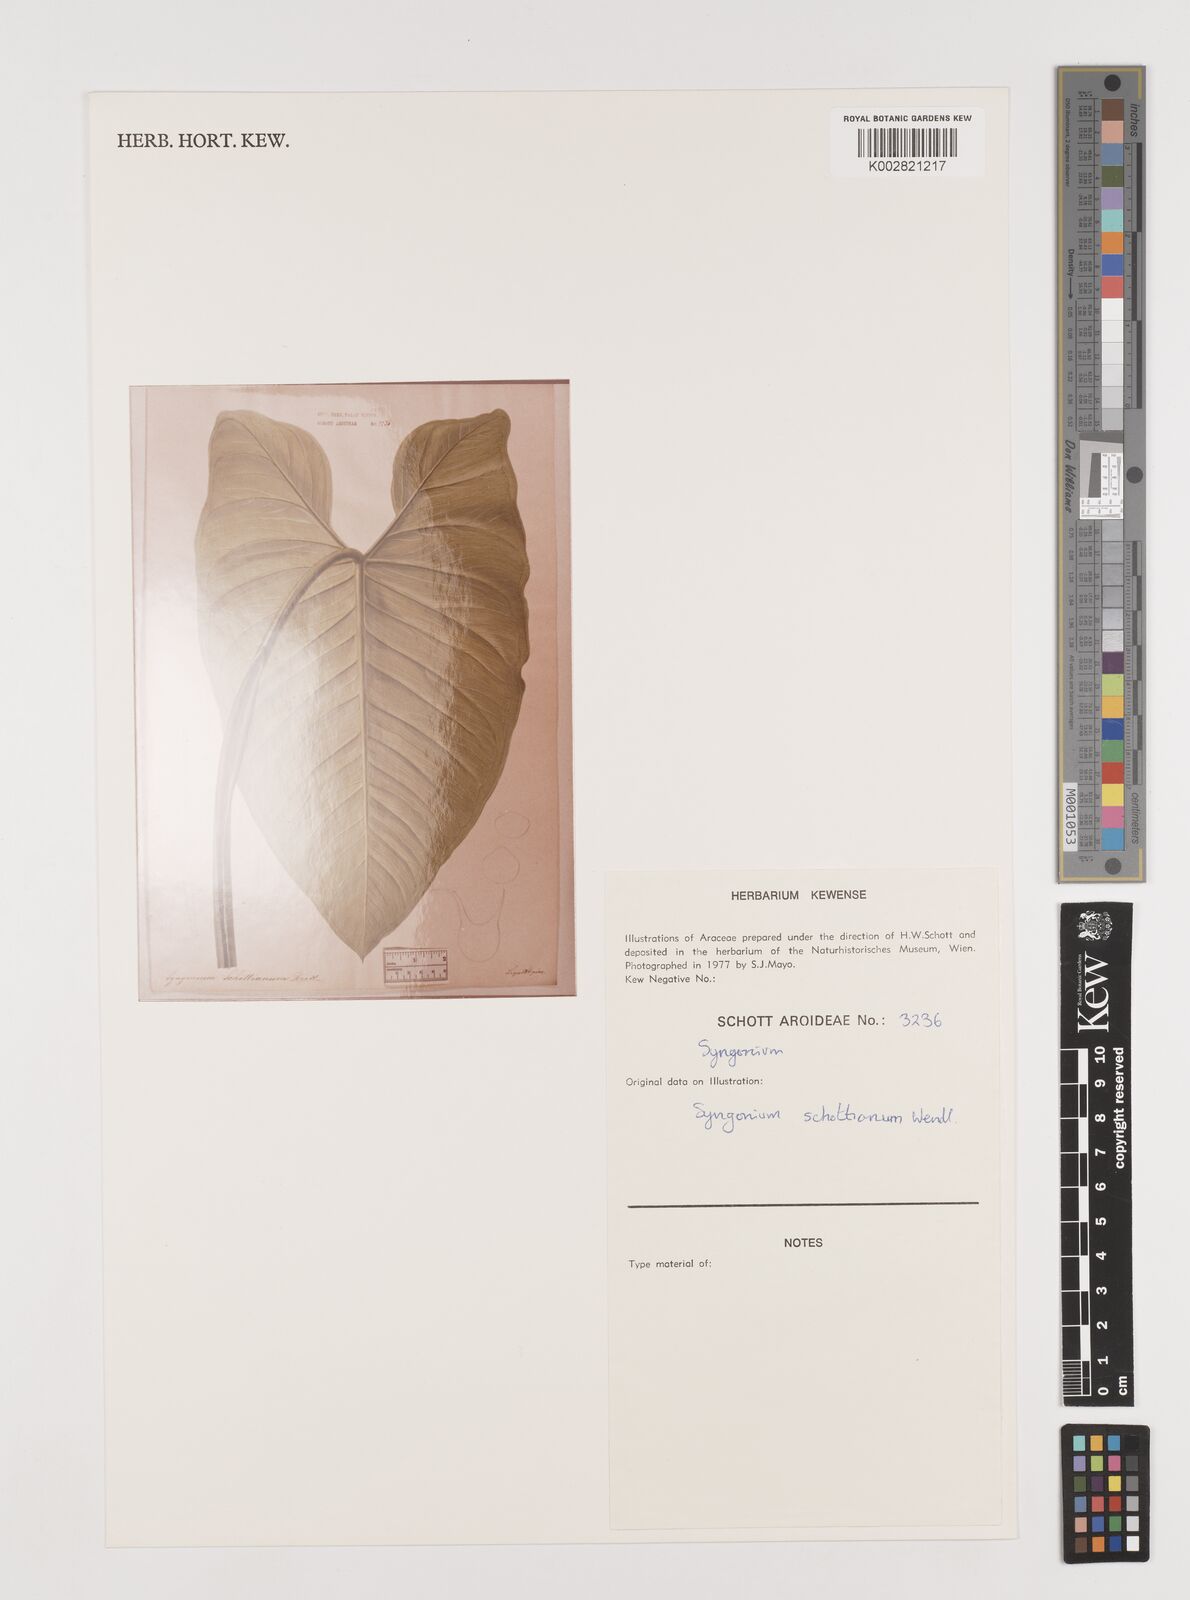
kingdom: Plantae
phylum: Tracheophyta
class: Liliopsida
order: Alismatales
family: Araceae
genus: Syngonium
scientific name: Syngonium schottianum
